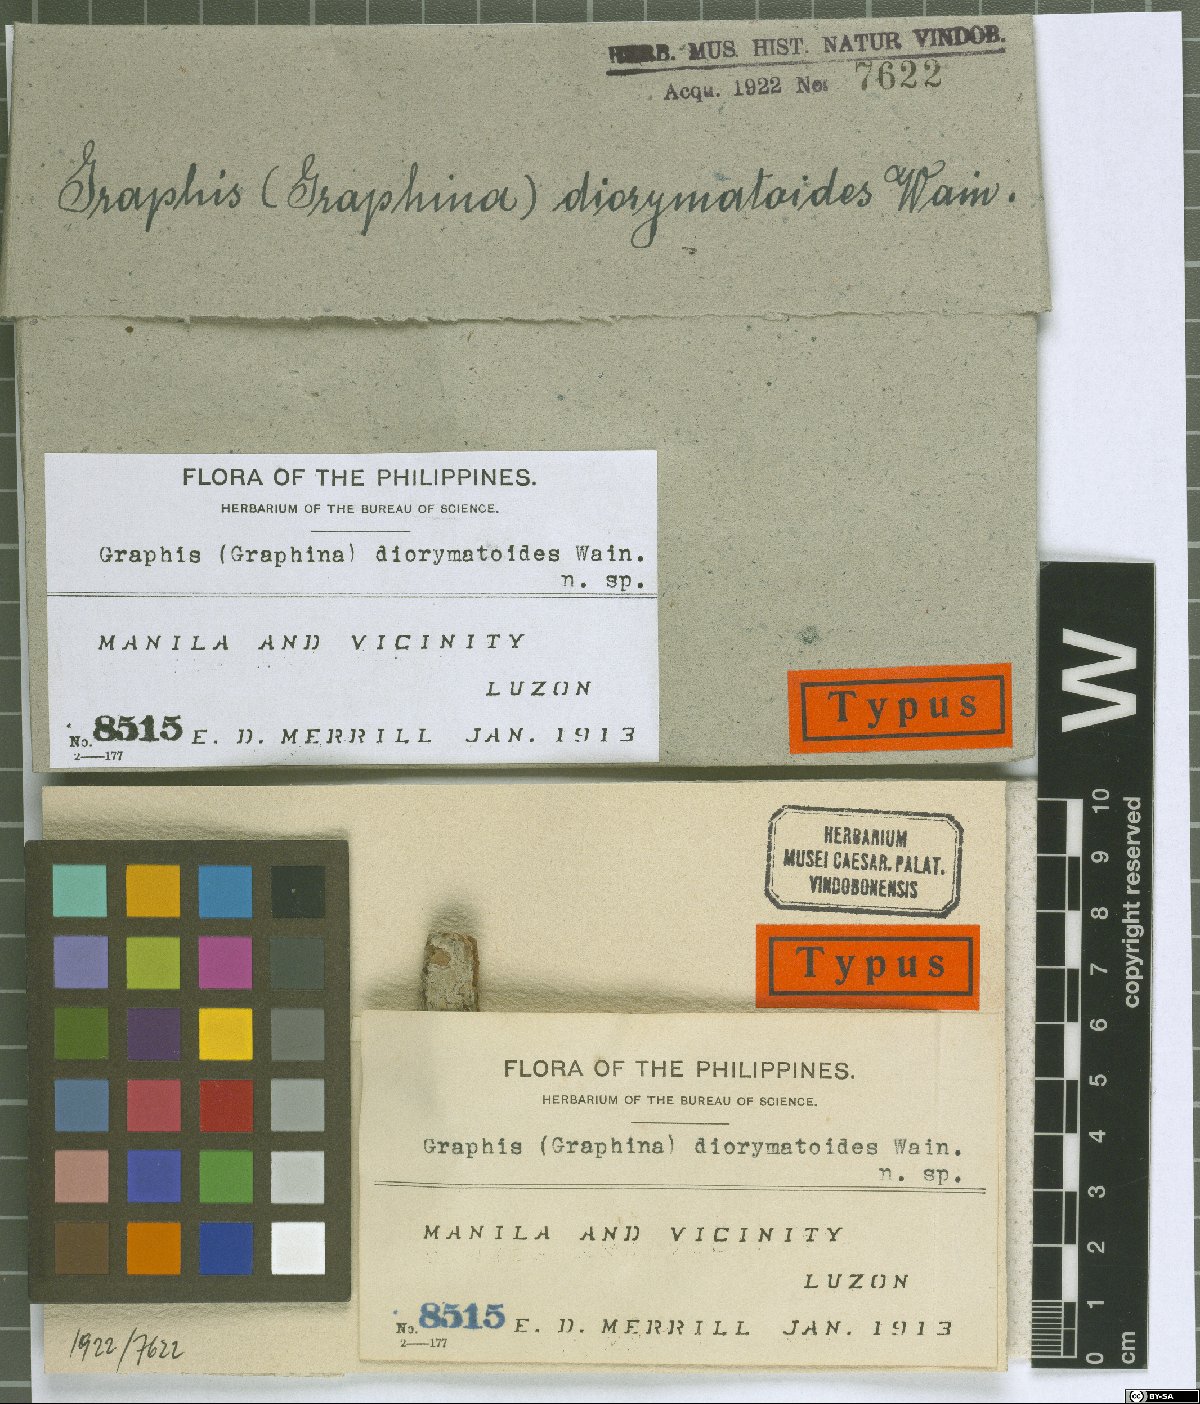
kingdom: Fungi
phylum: Ascomycota
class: Lecanoromycetes
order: Ostropales
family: Graphidaceae
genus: Graphis
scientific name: Graphis
